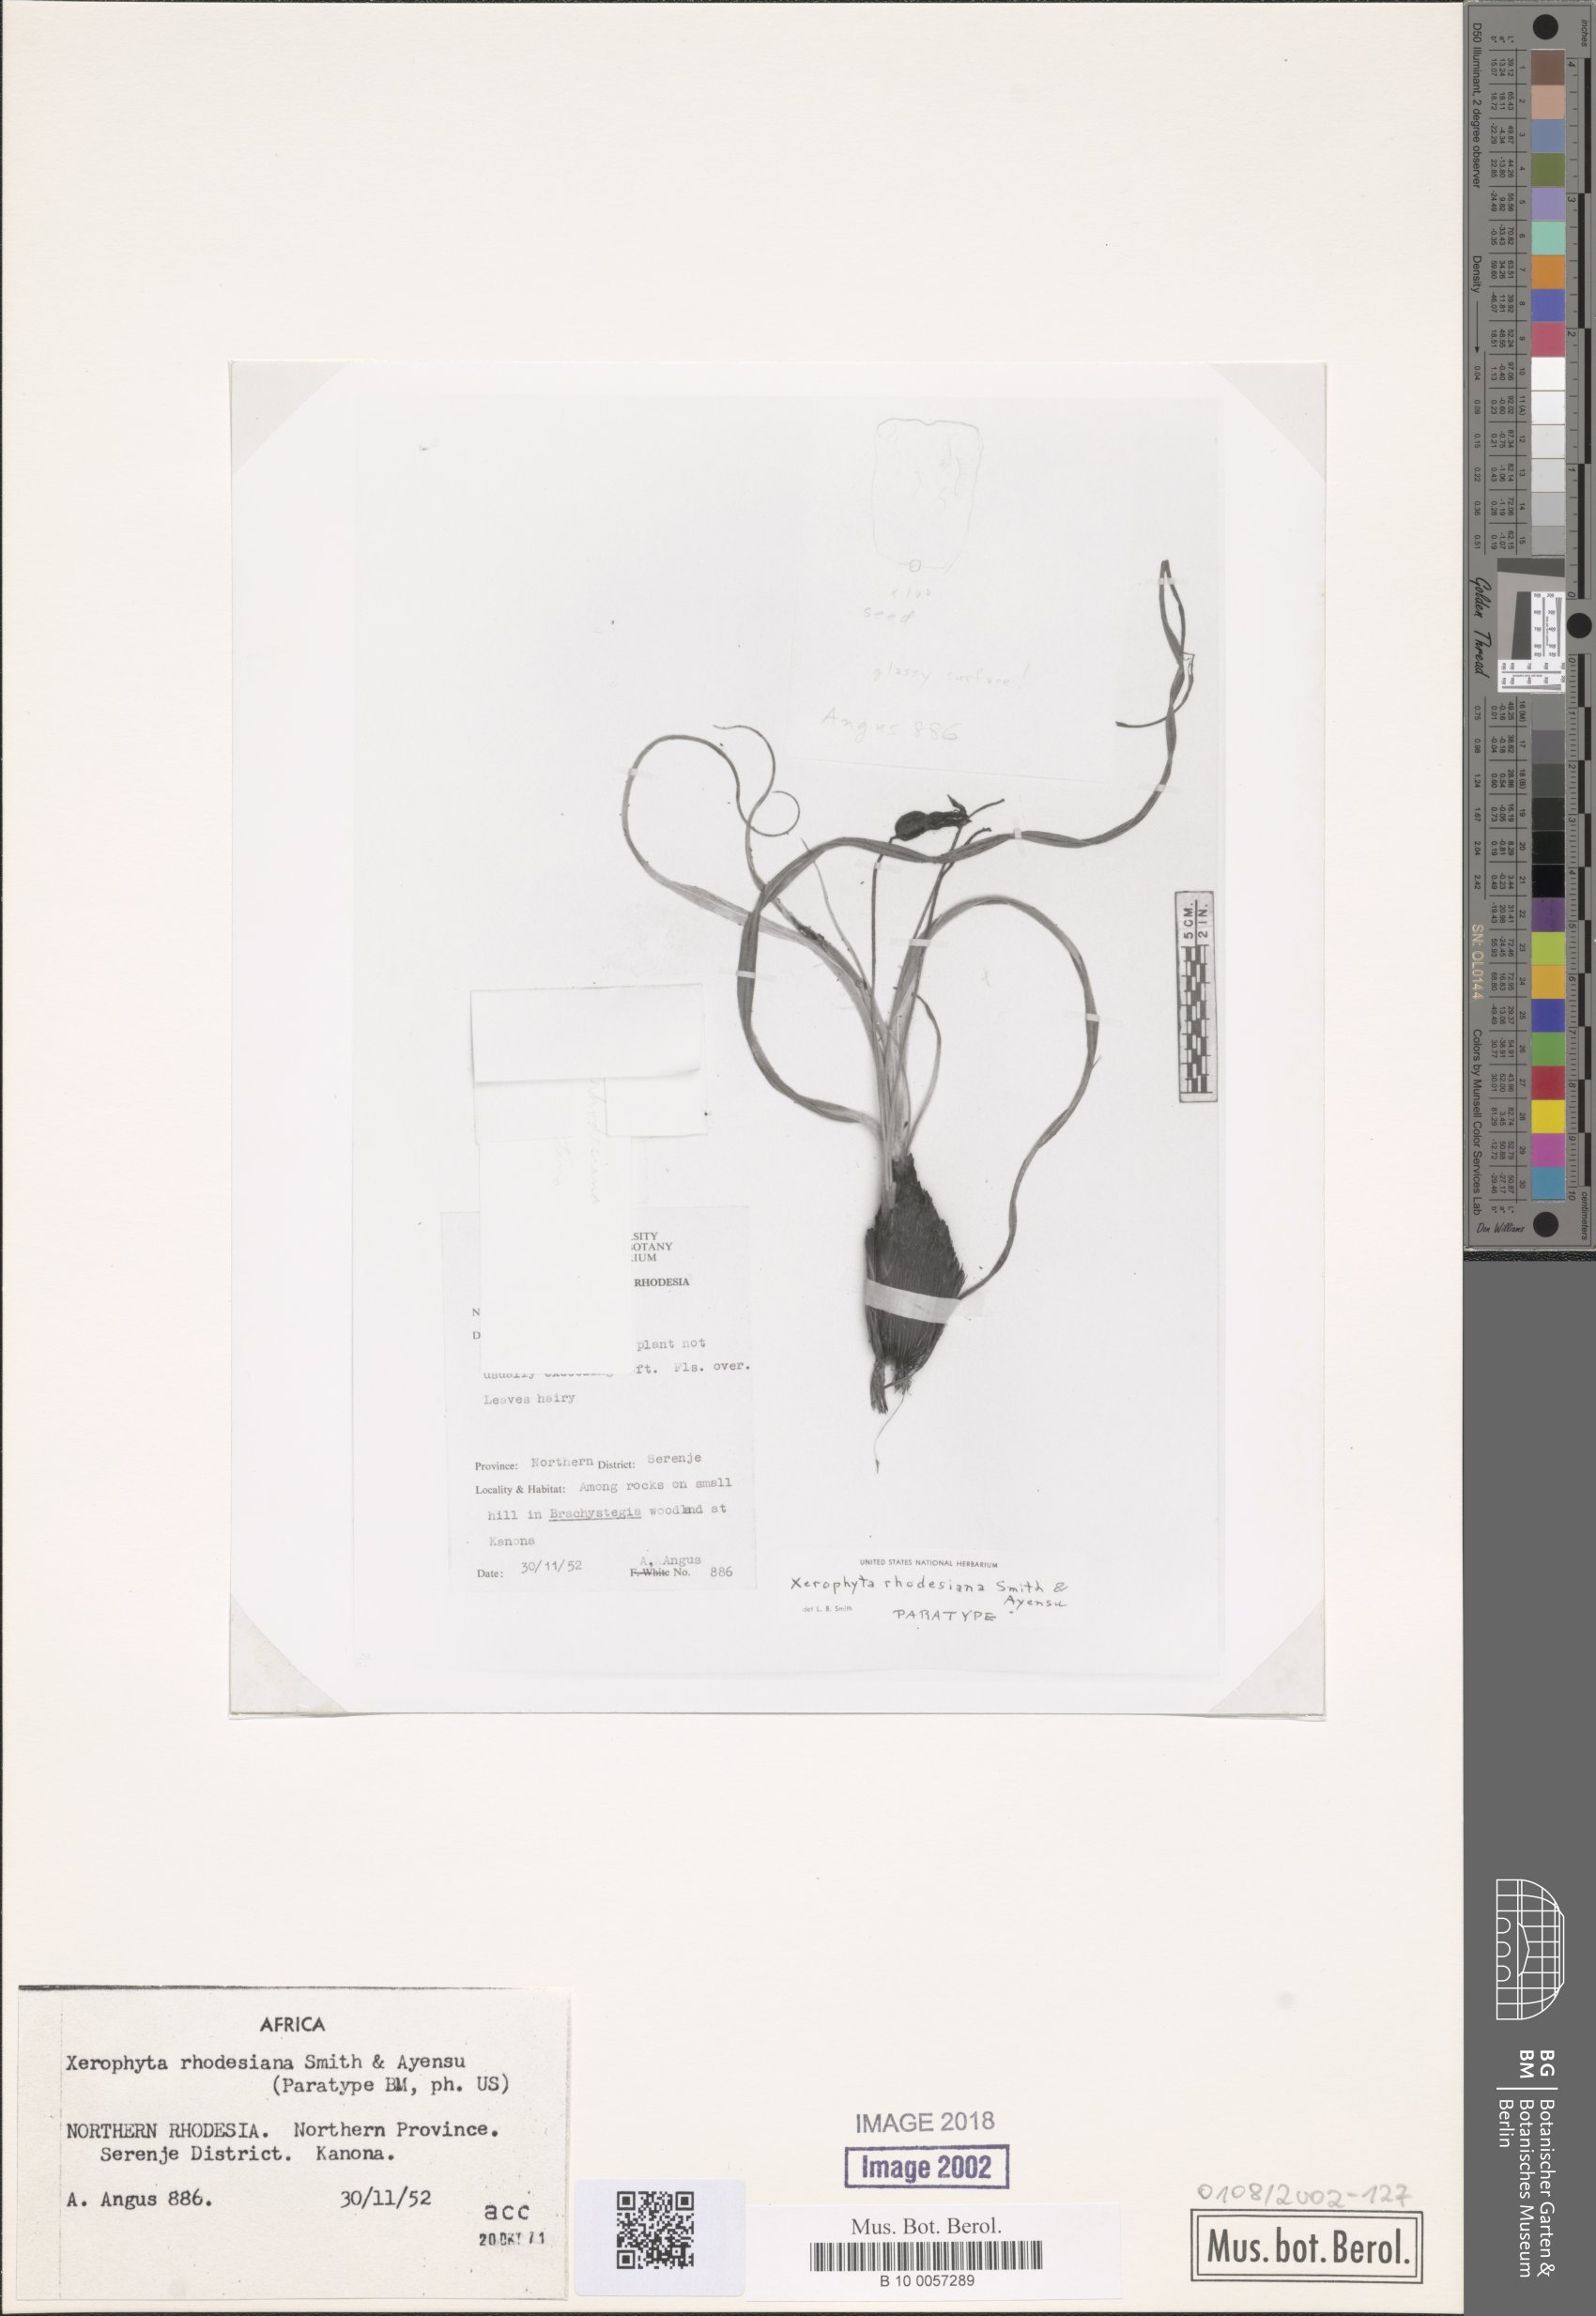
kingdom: Plantae
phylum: Tracheophyta
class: Liliopsida
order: Pandanales
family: Velloziaceae
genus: Xerophyta
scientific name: Xerophyta
